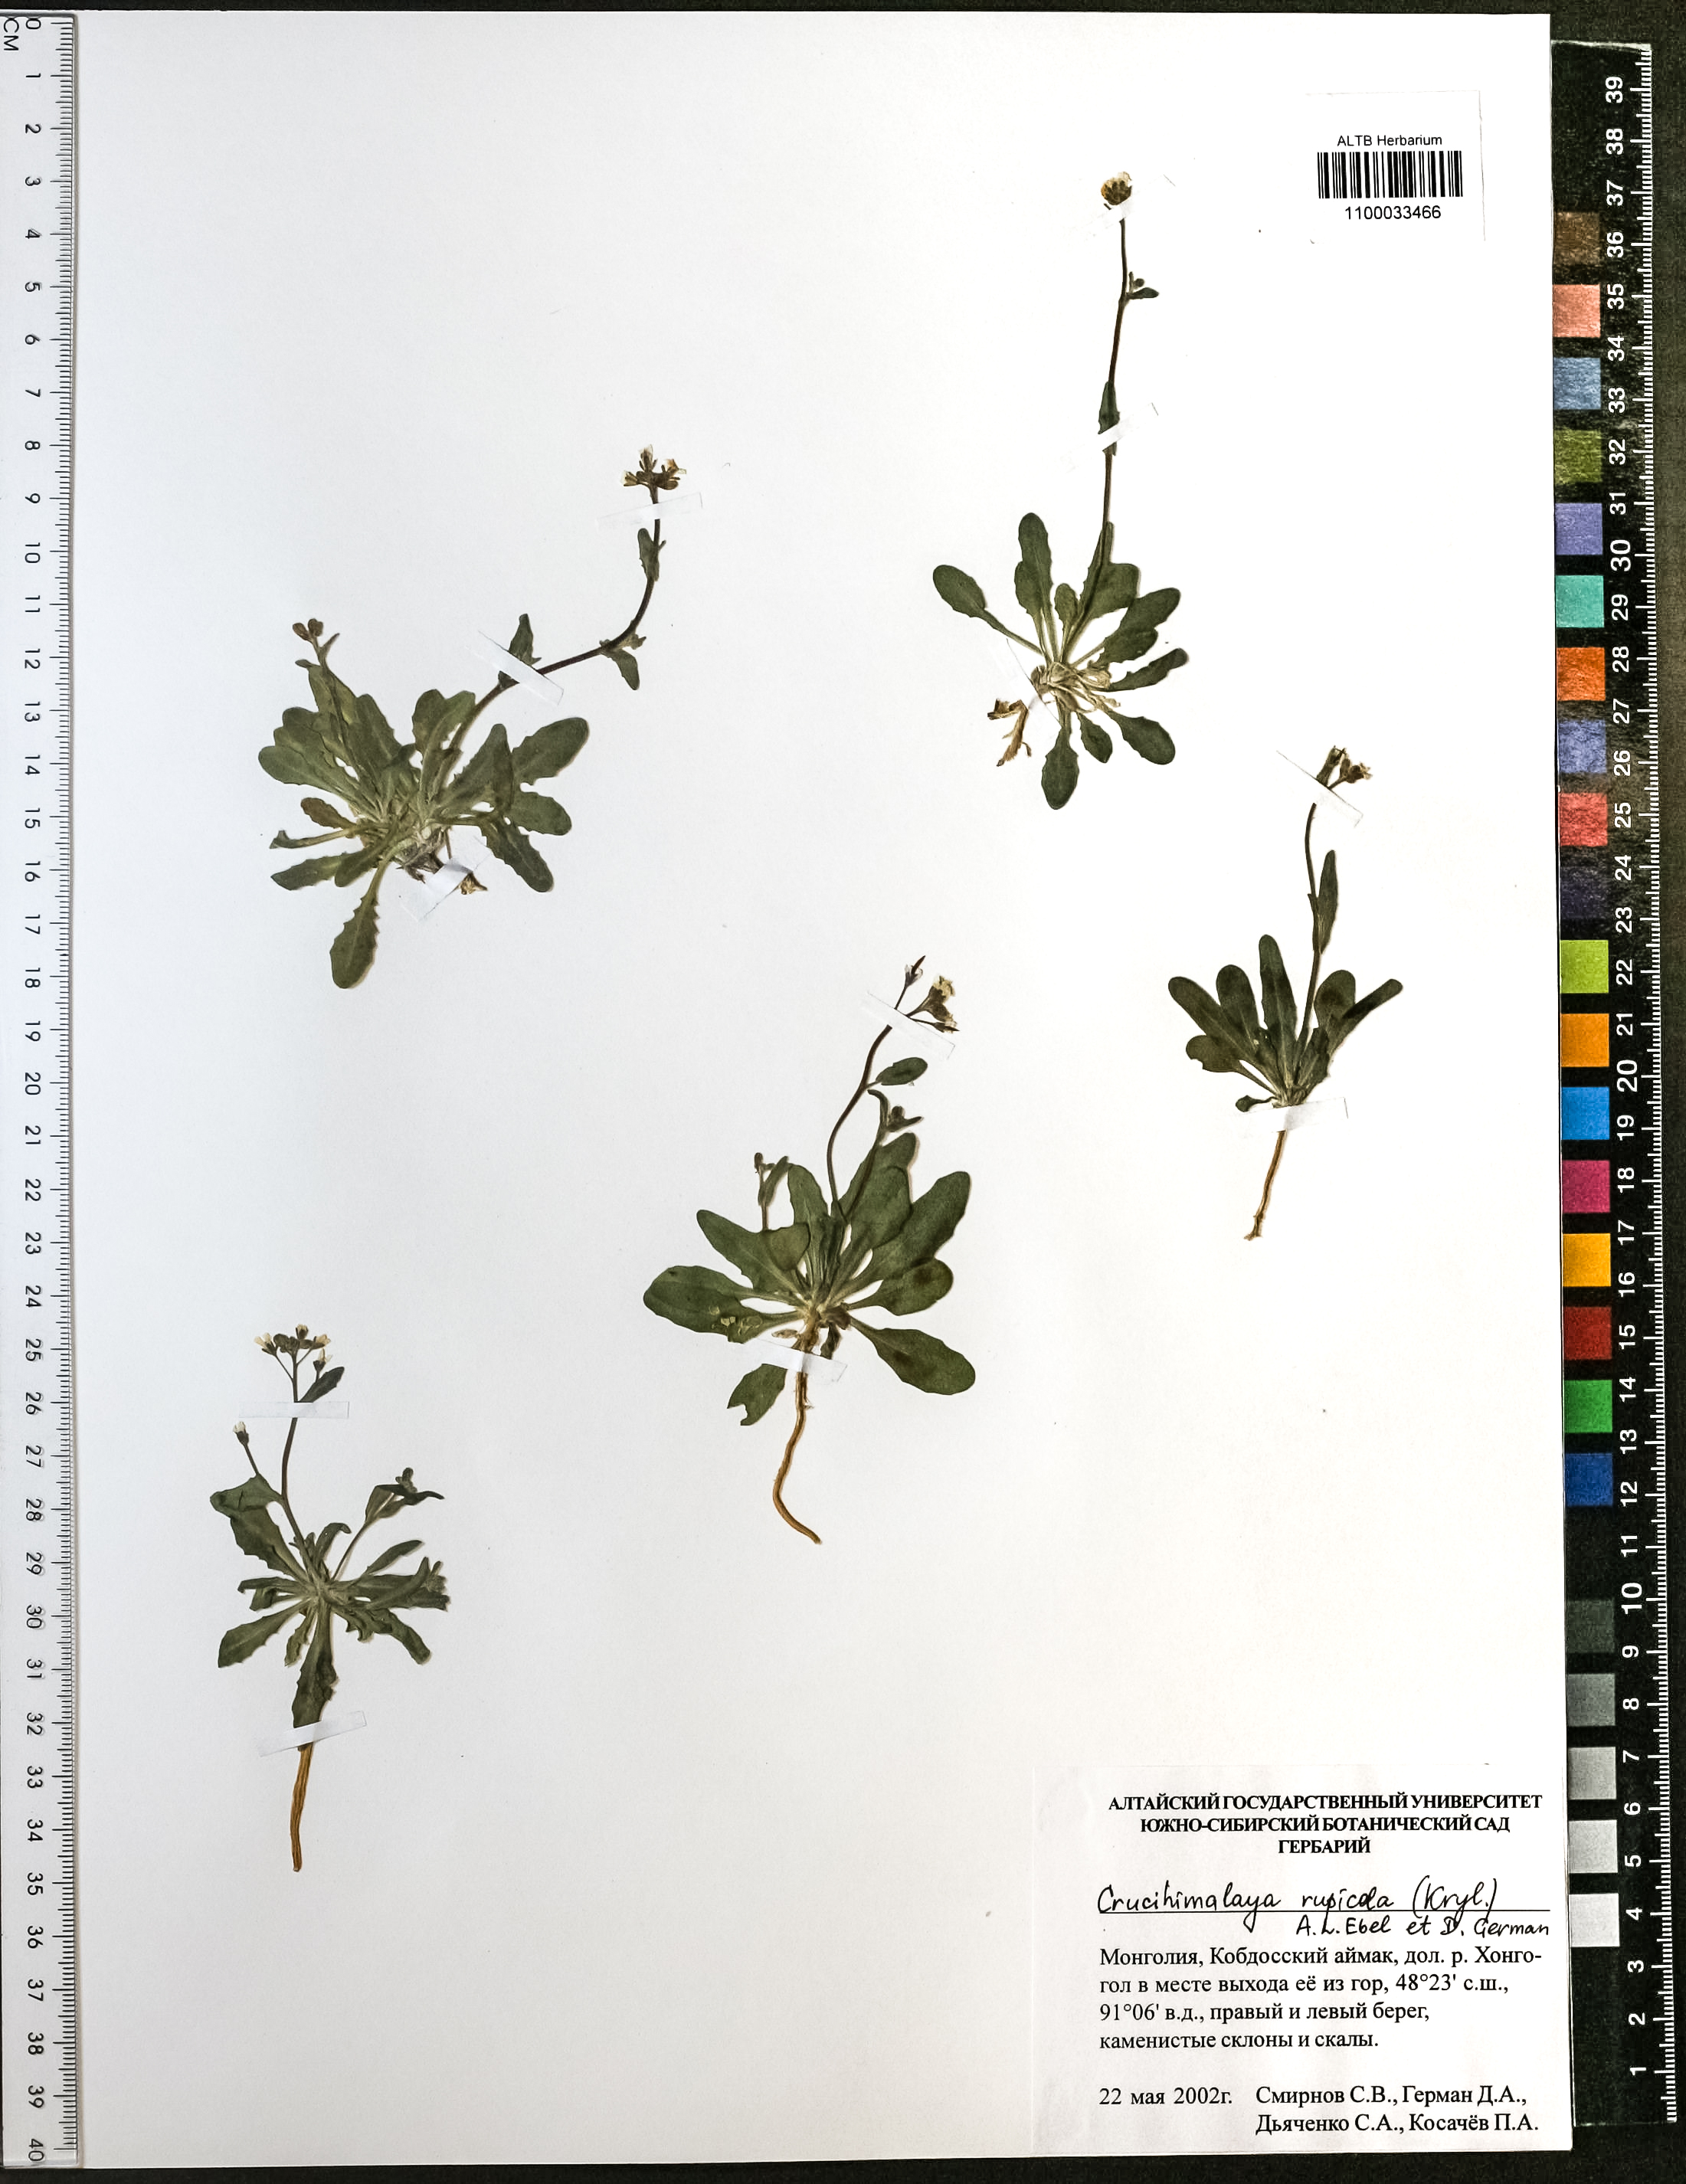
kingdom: Plantae
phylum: Tracheophyta
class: Magnoliopsida
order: Brassicales
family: Brassicaceae
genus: Crucihimalaya
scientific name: Crucihimalaya rupicola
